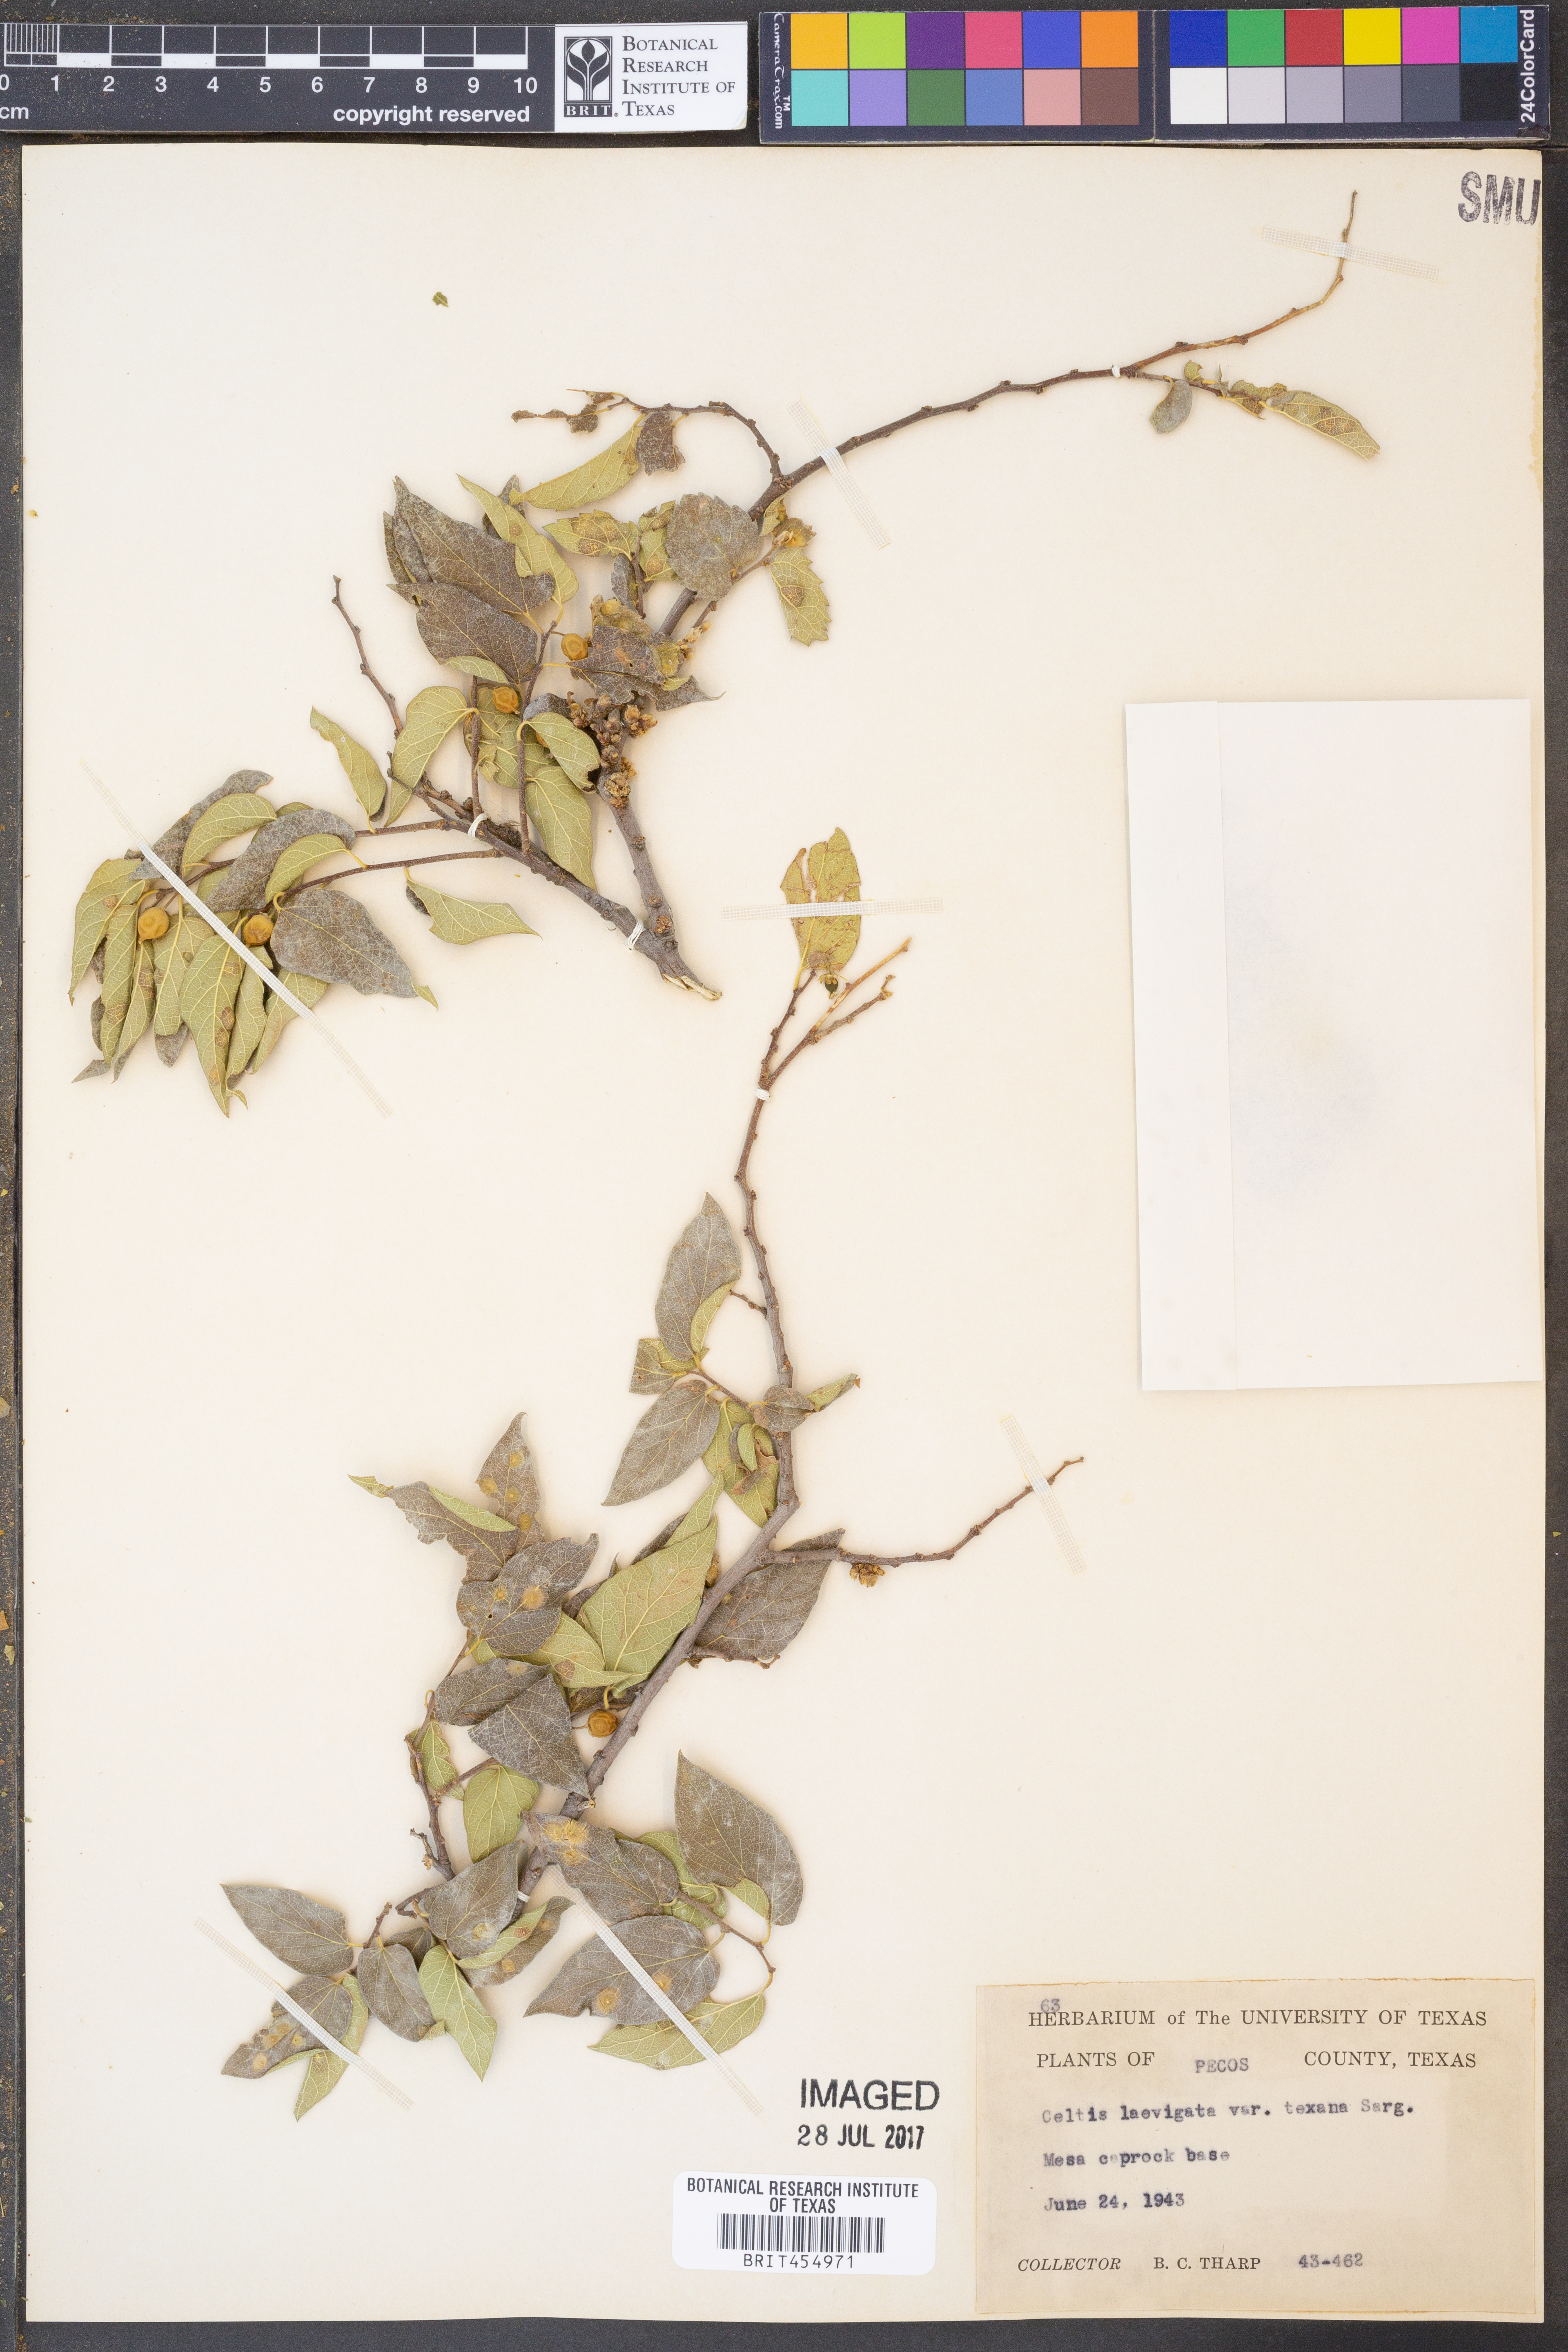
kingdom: Plantae
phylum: Tracheophyta
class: Magnoliopsida
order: Rosales
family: Cannabaceae
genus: Celtis
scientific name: Celtis laevigata
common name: Sugarberry
